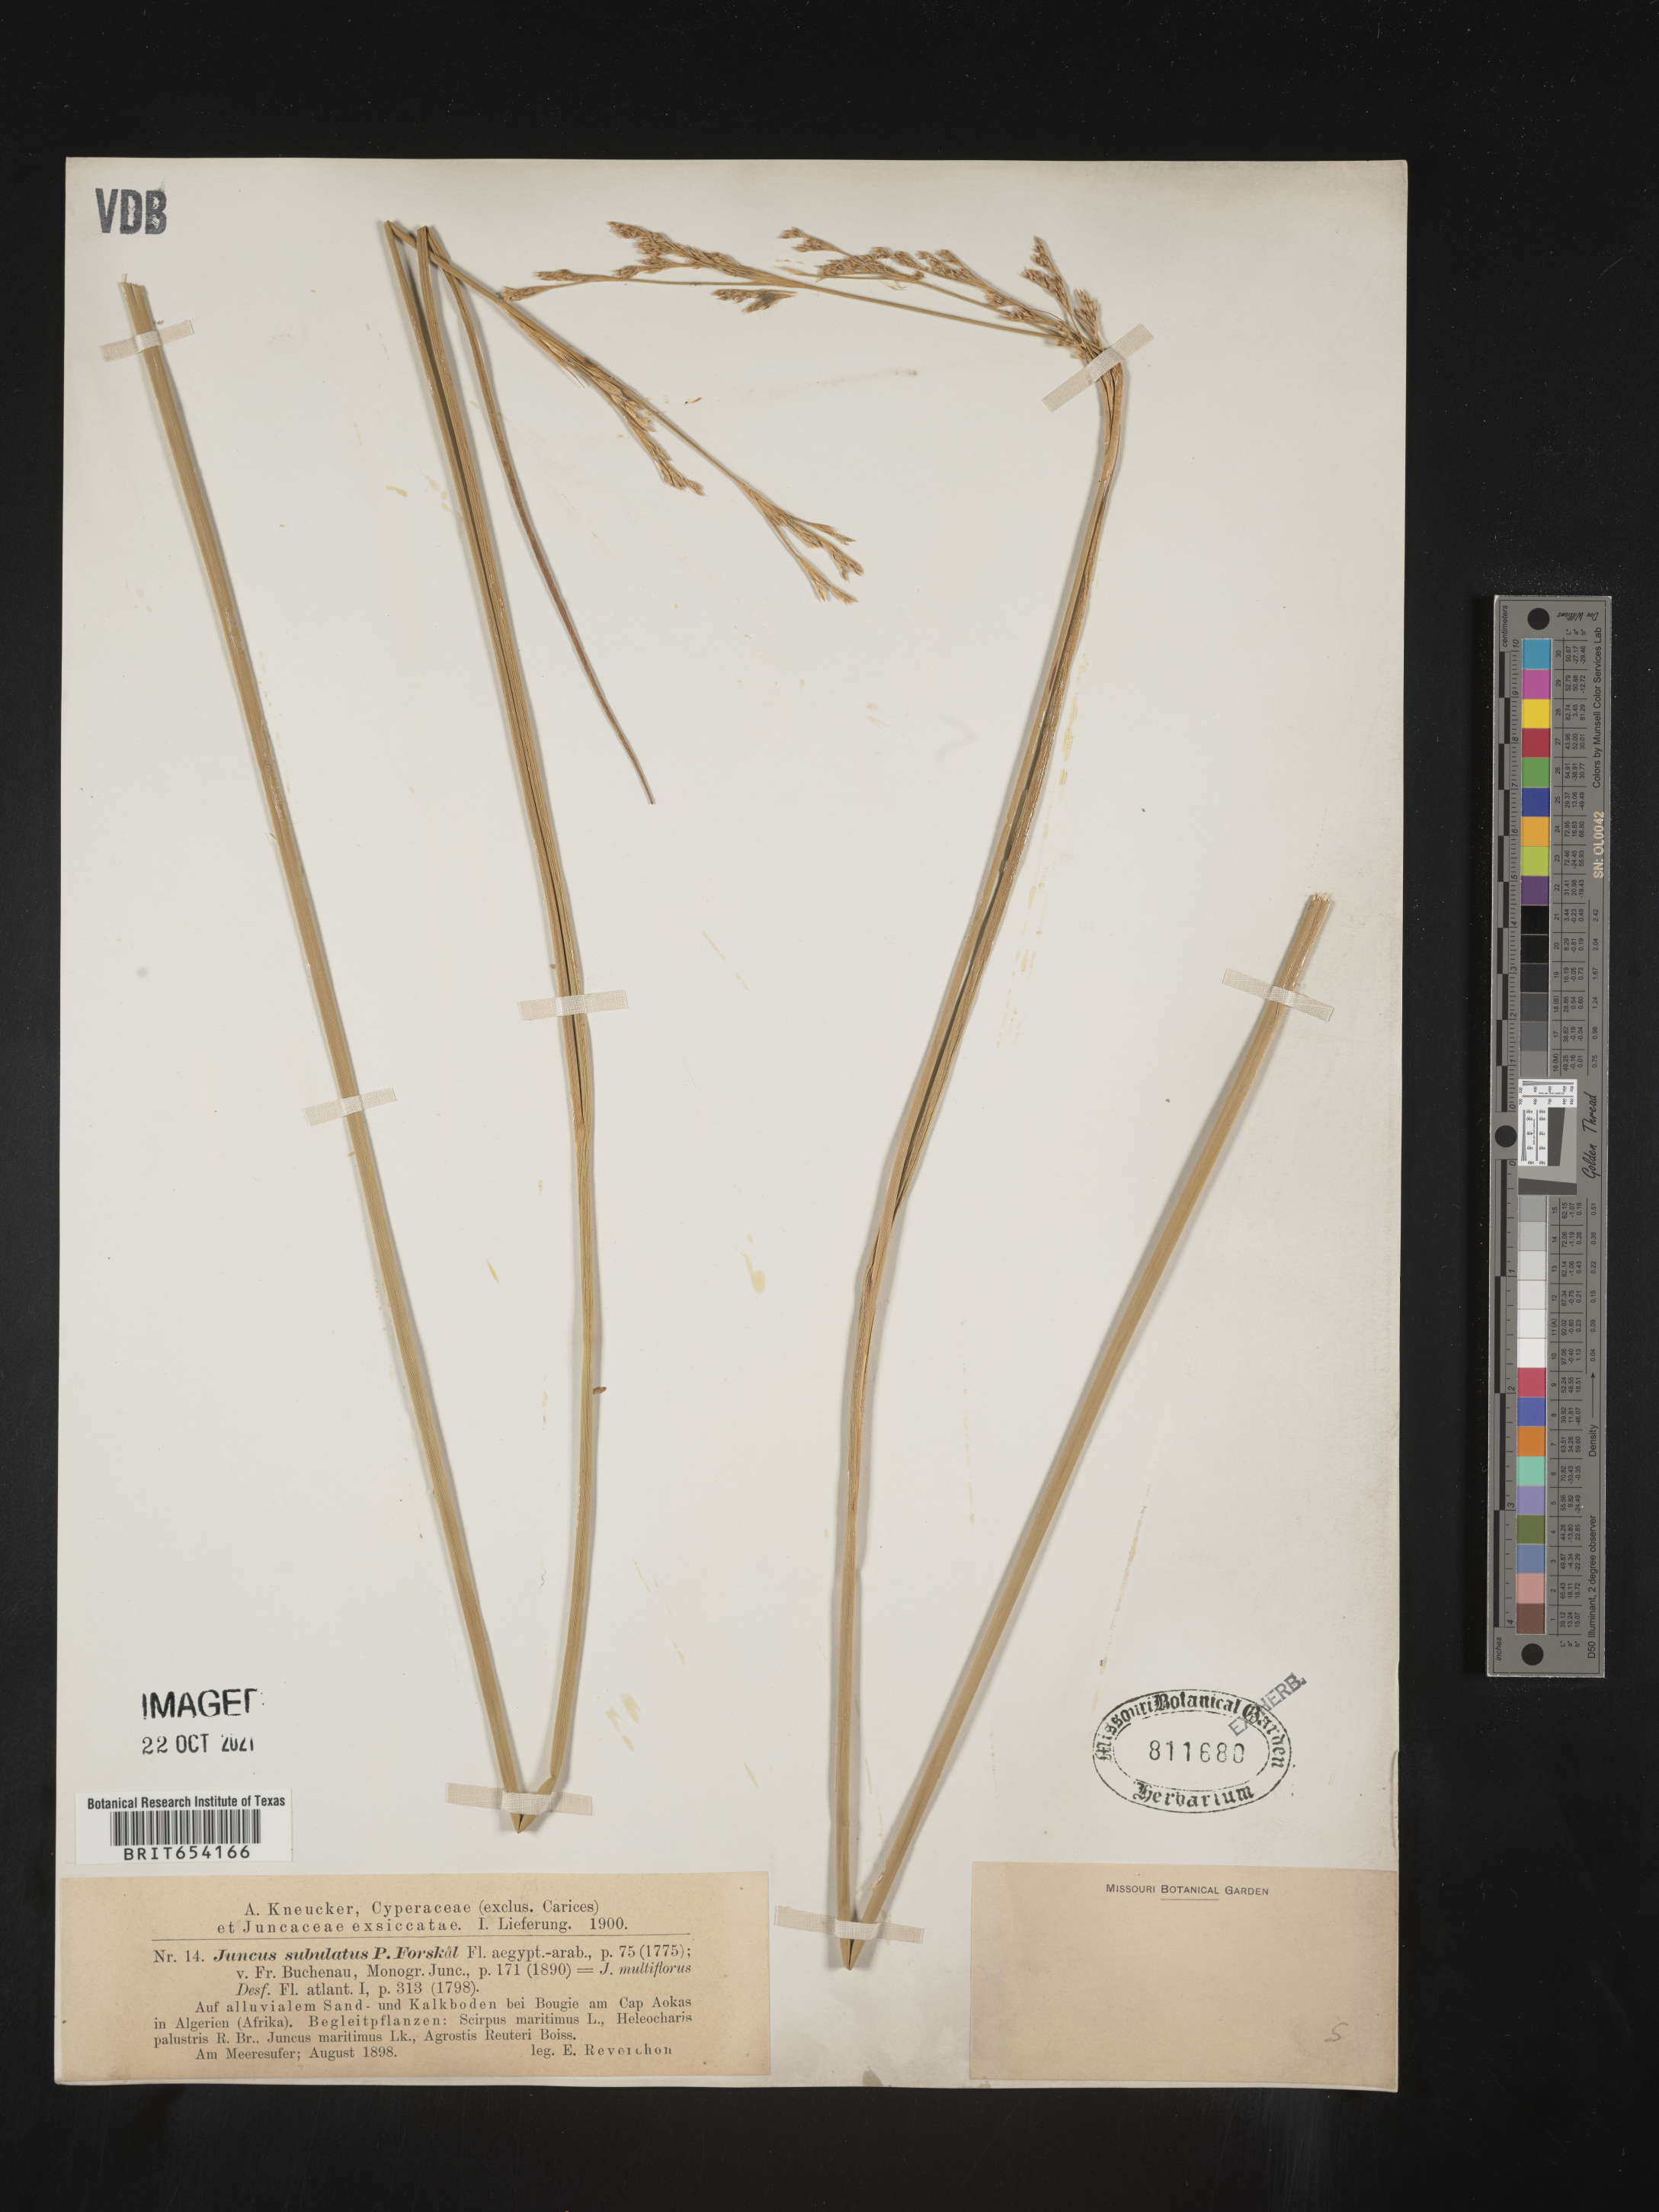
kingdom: Plantae
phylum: Tracheophyta
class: Liliopsida
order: Poales
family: Juncaceae
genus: Juncus
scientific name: Juncus
